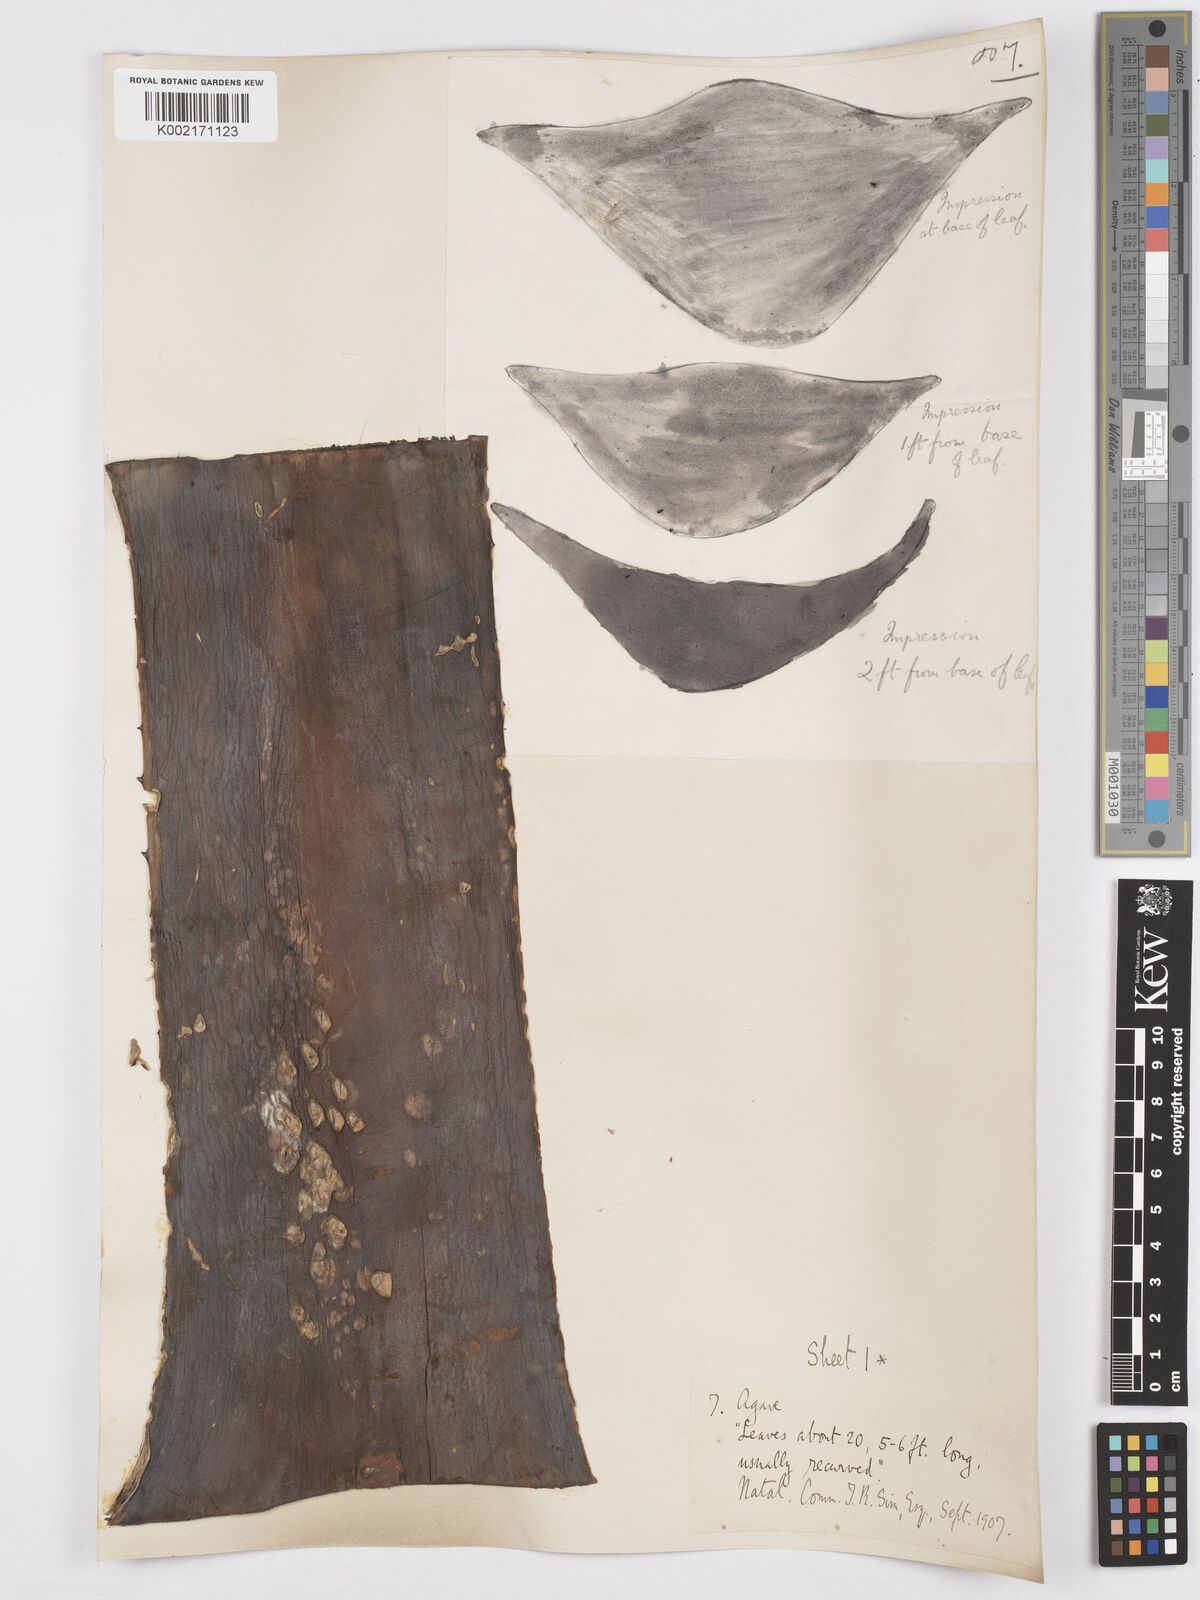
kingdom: Plantae
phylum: Tracheophyta
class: Liliopsida
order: Asparagales
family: Asparagaceae
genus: Agave
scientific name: Agave
